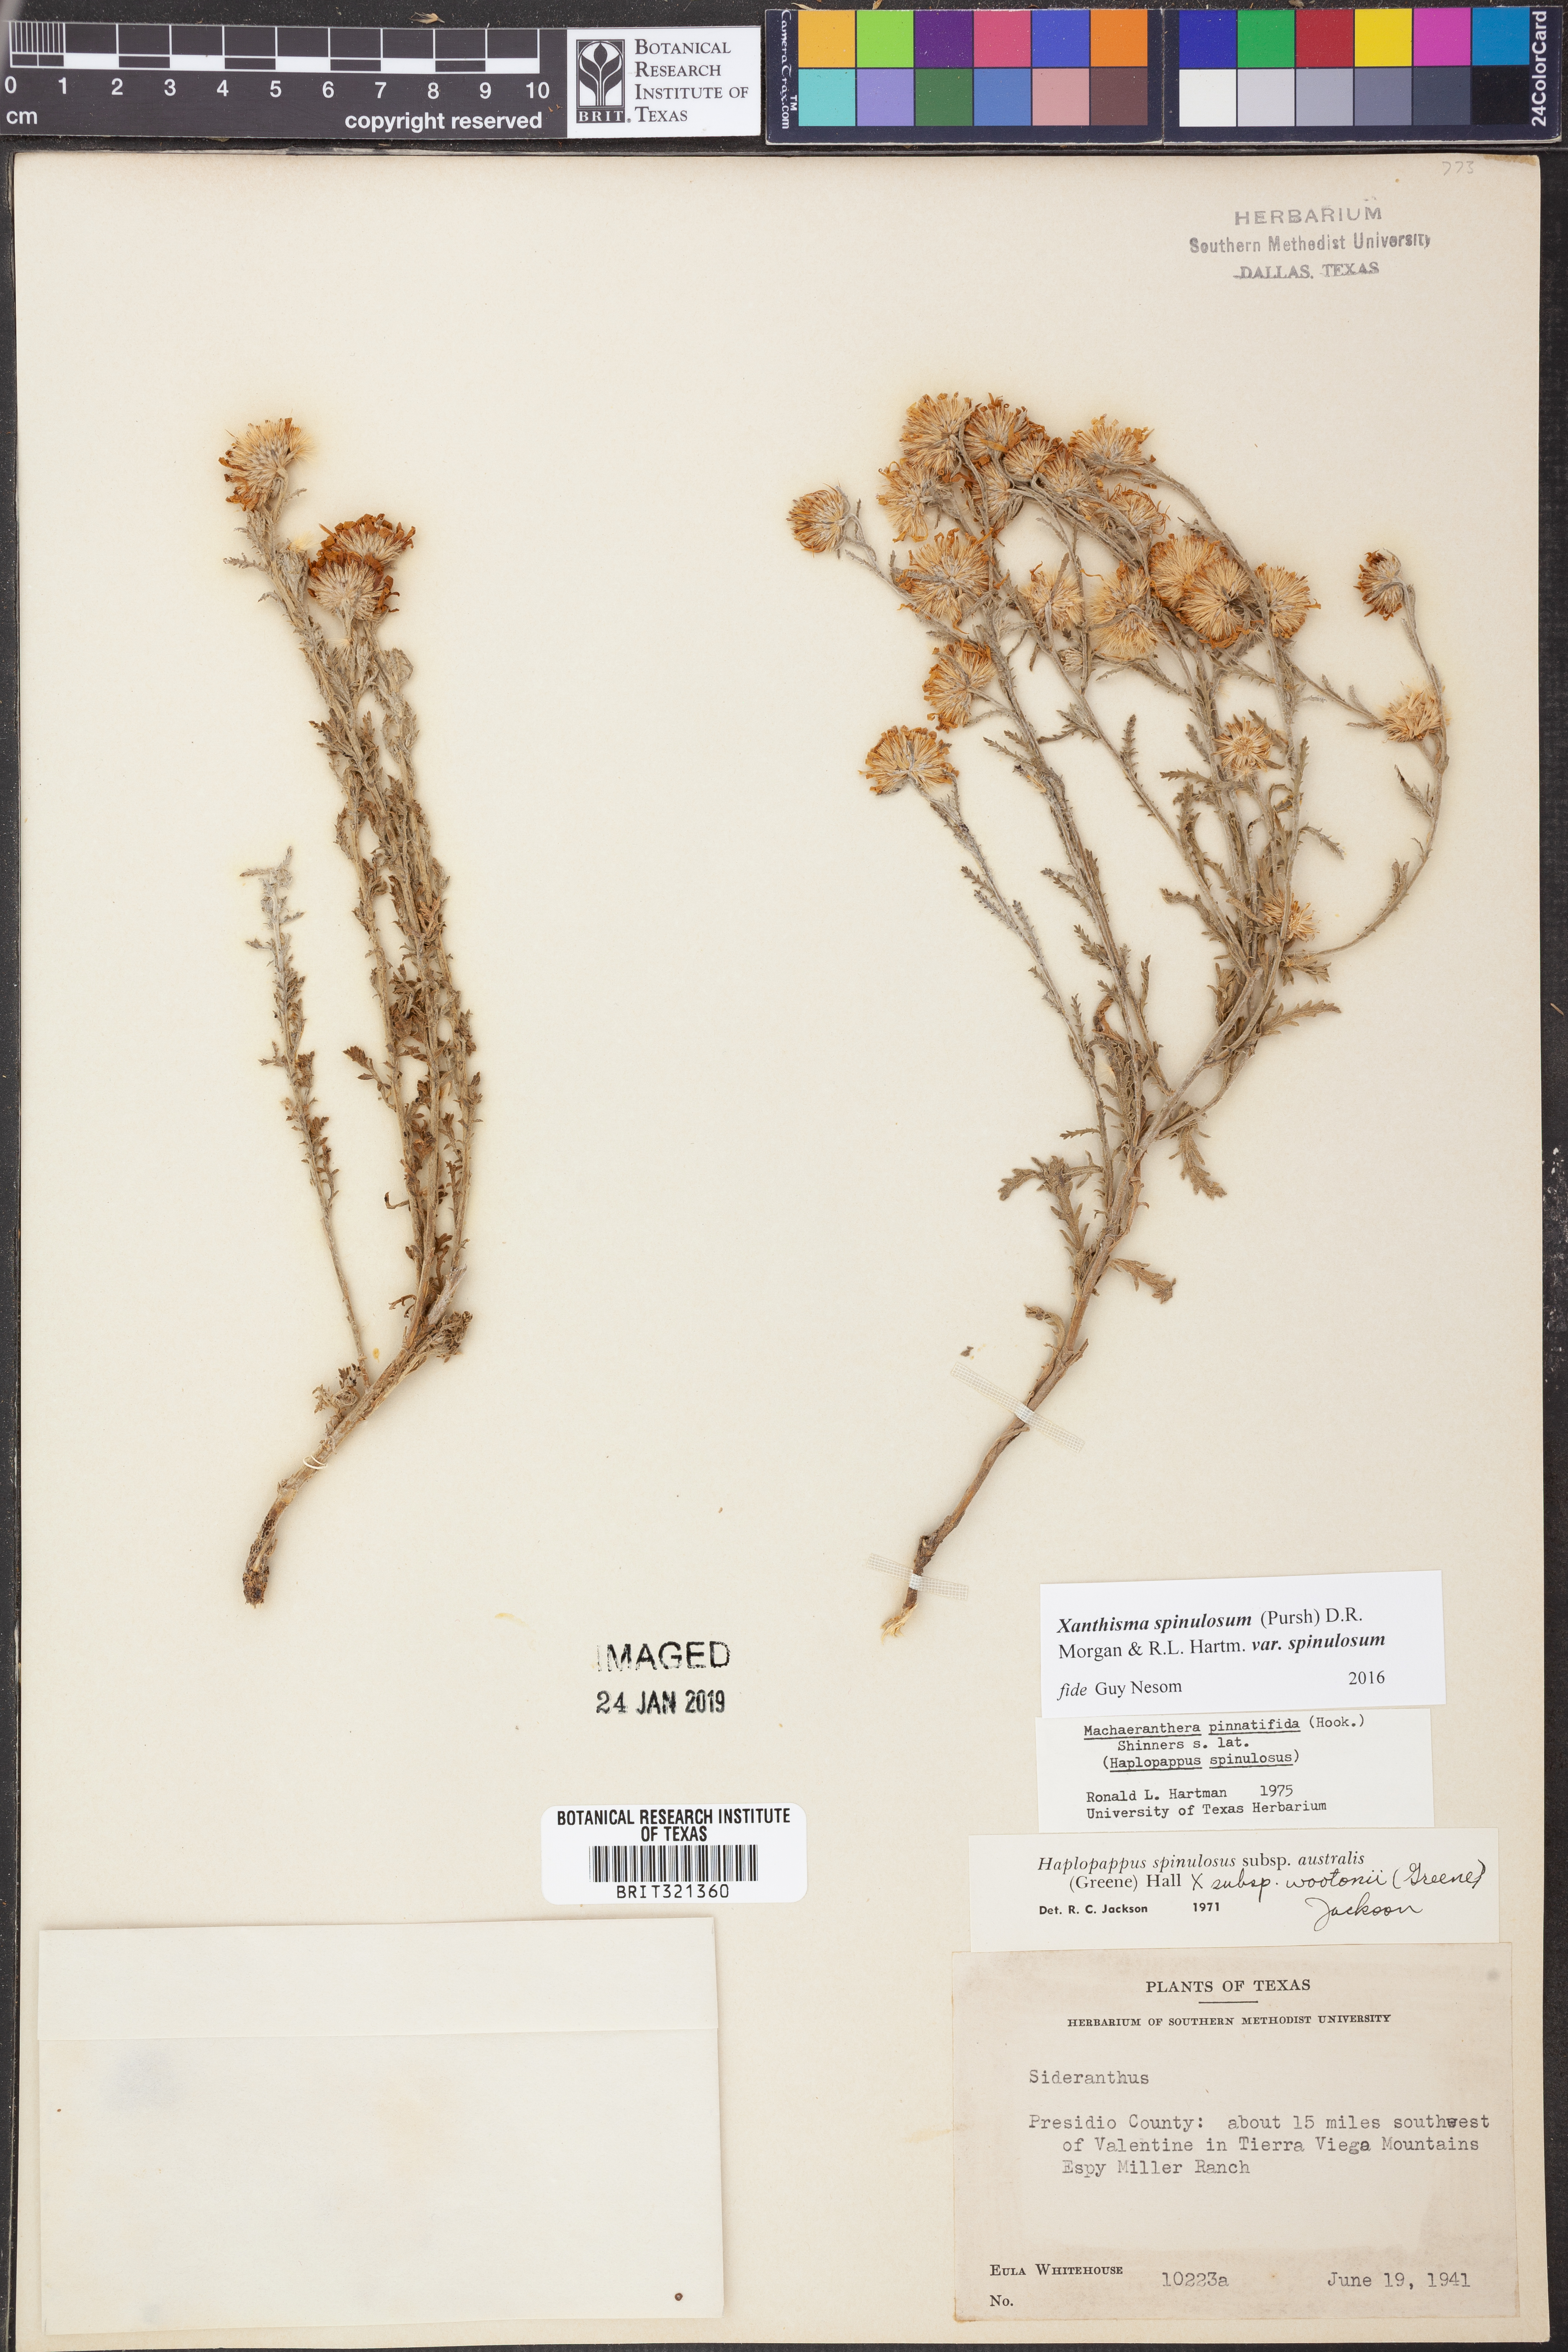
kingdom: Plantae
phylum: Tracheophyta
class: Magnoliopsida
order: Asterales
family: Asteraceae
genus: Xanthisma
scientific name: Xanthisma spinulosum
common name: Spiny goldenweed
